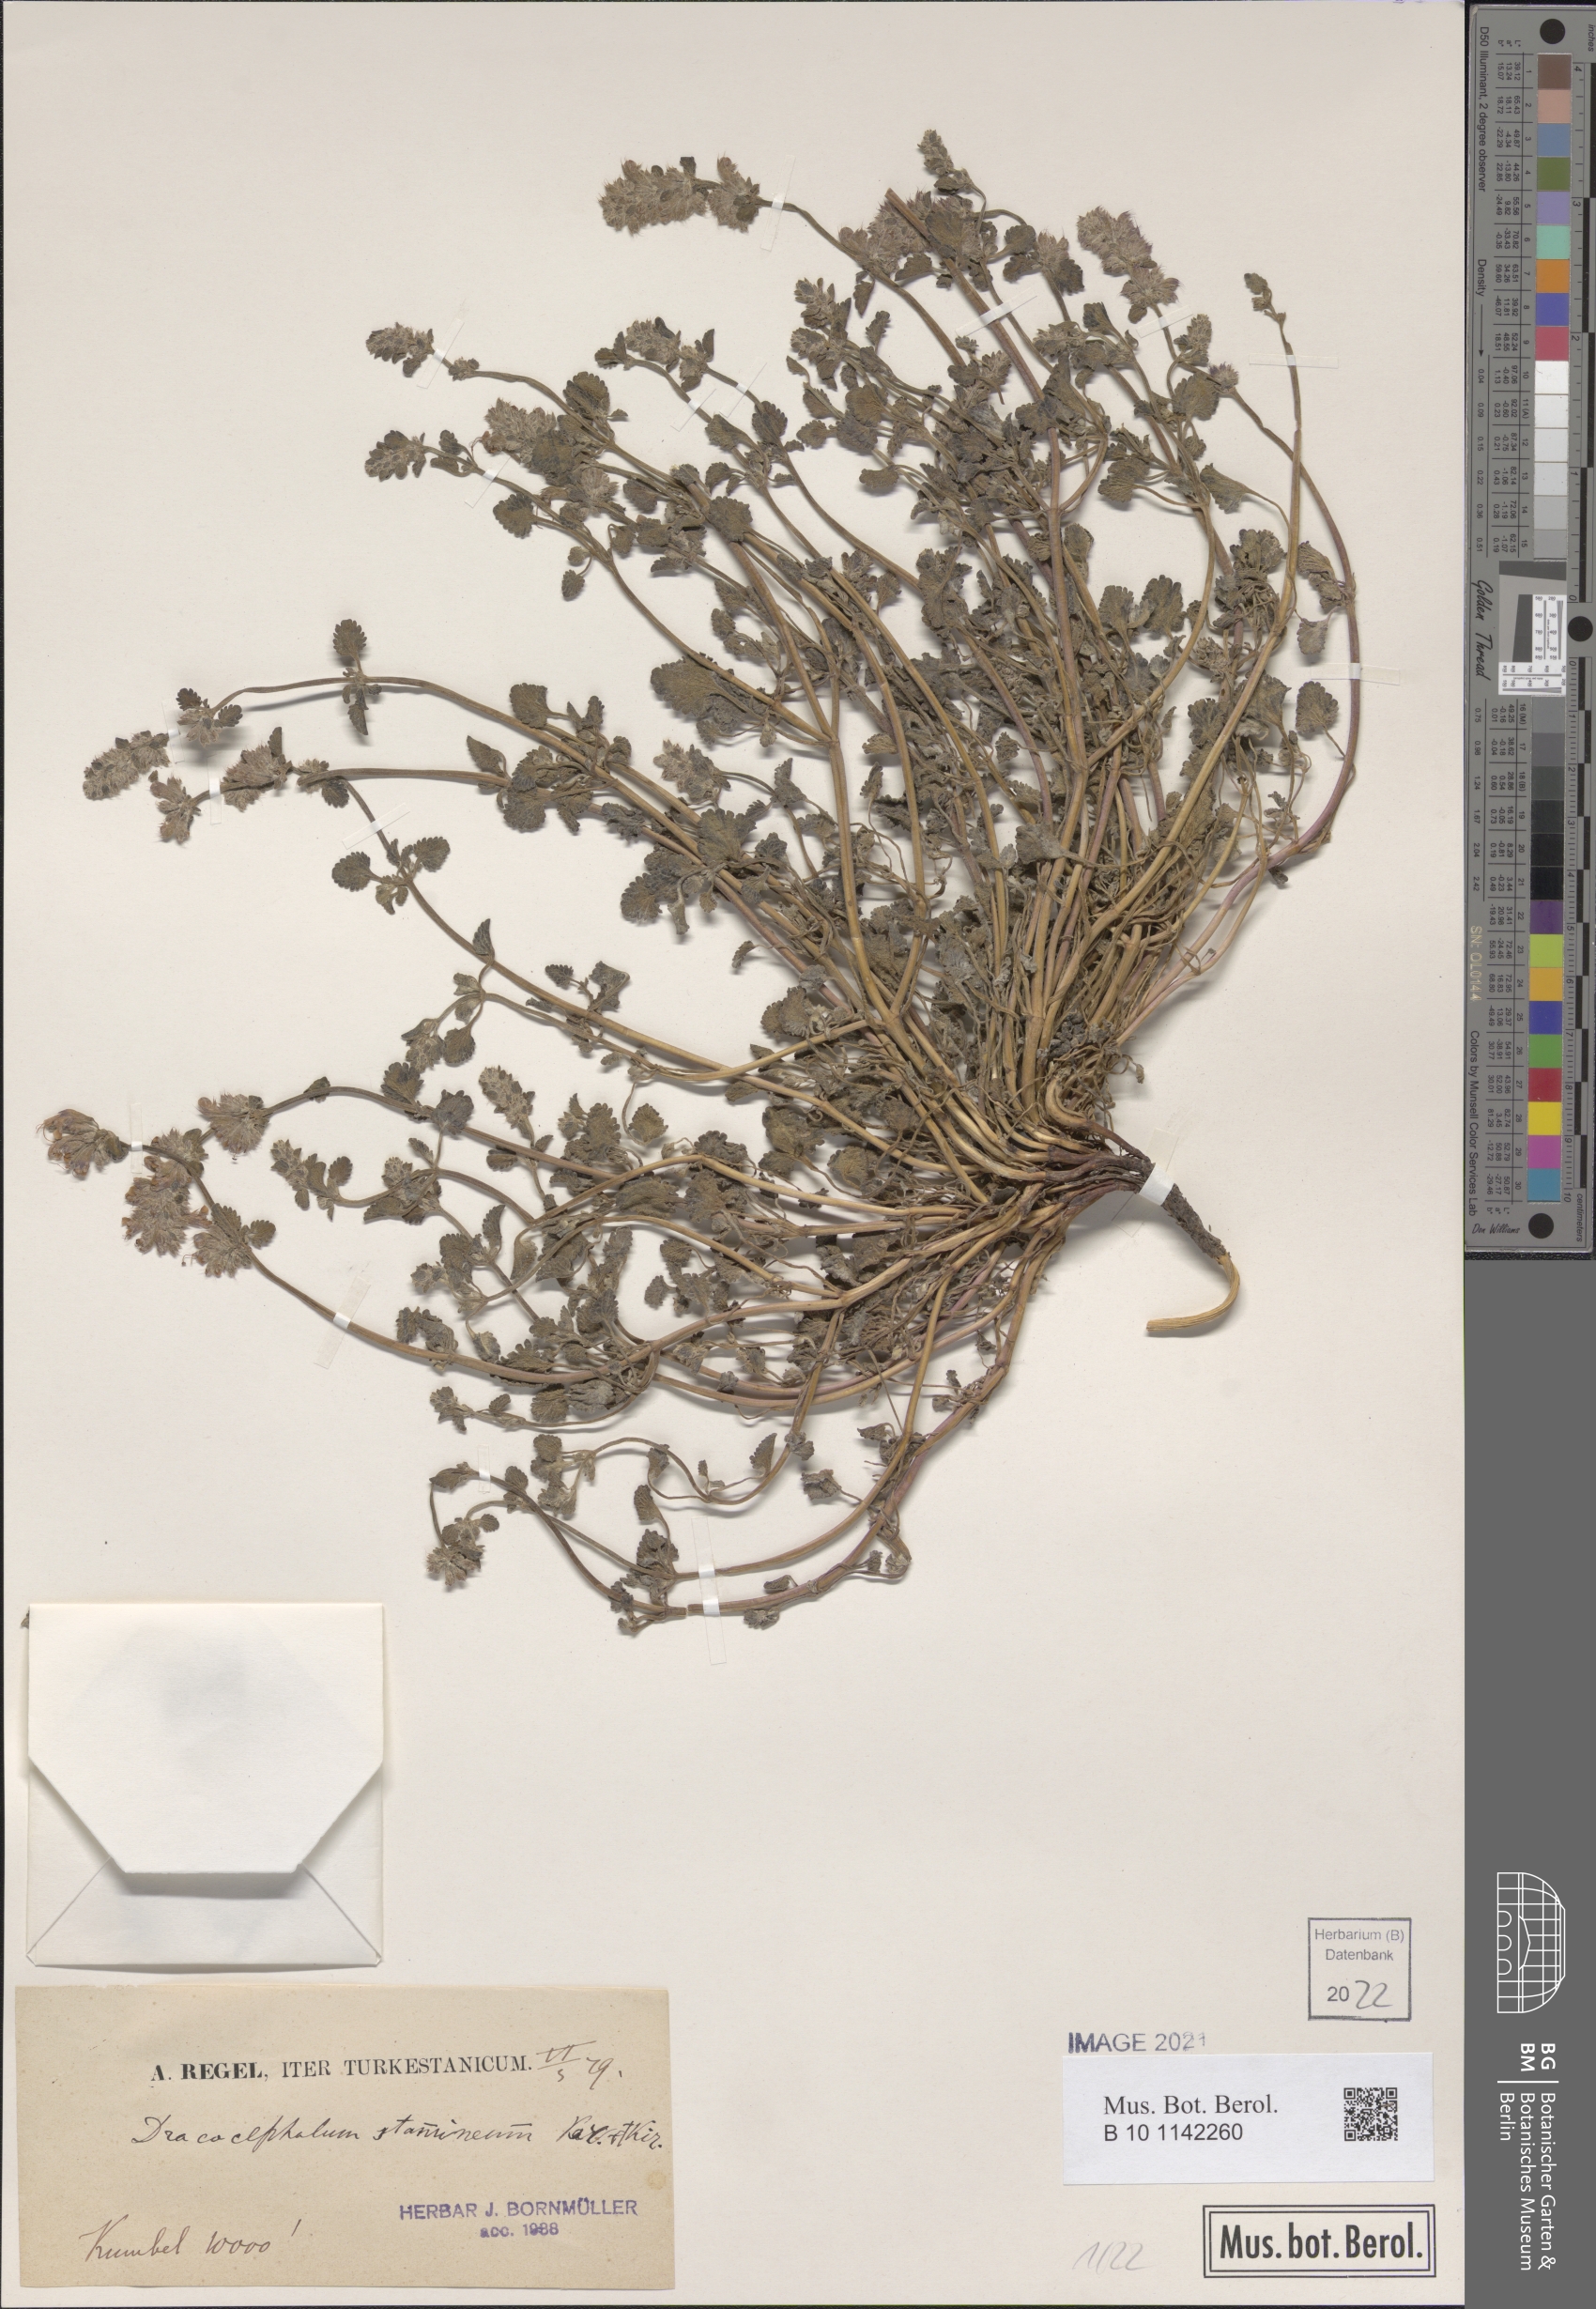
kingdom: Plantae
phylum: Tracheophyta
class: Magnoliopsida
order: Lamiales
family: Lamiaceae
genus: Dracocephalum
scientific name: Dracocephalum stamineum
